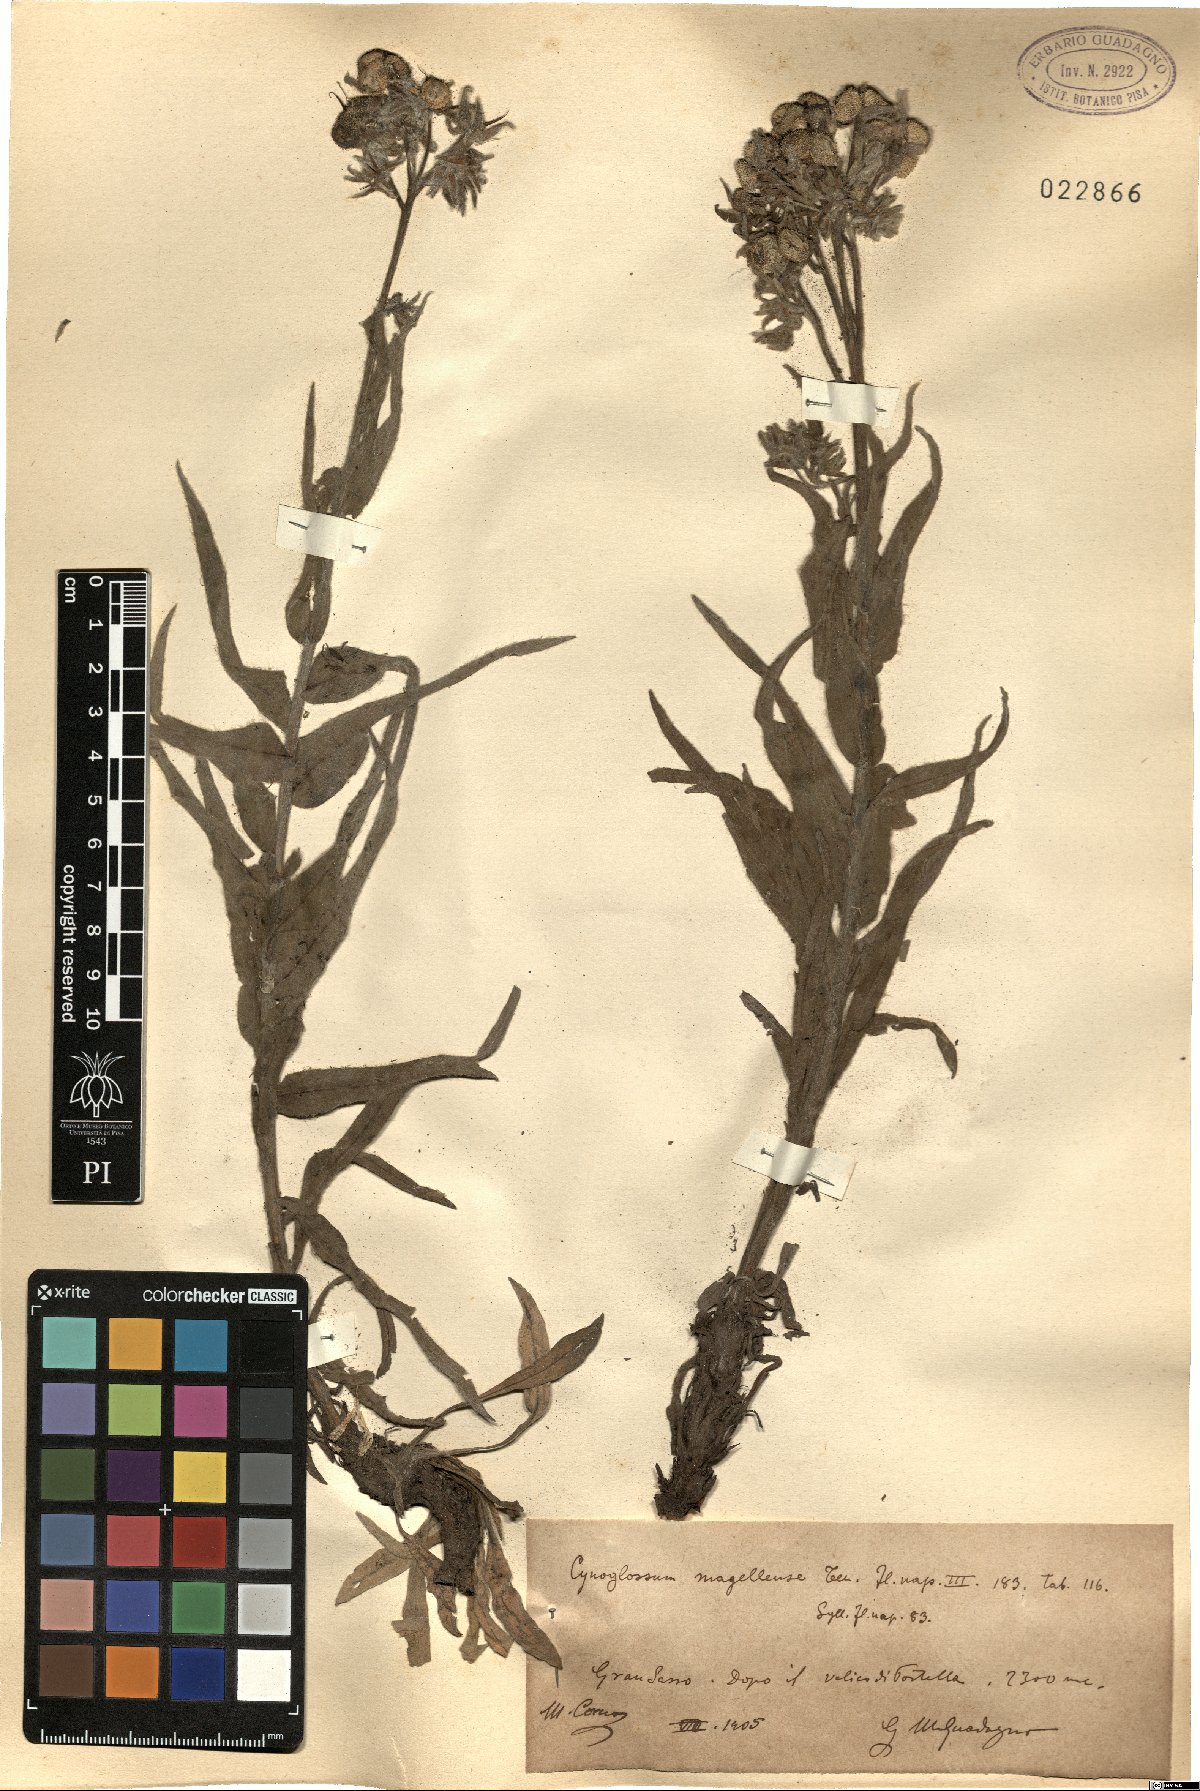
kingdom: Plantae
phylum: Tracheophyta
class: Magnoliopsida
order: Boraginales
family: Boraginaceae
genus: Rindera
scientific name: Rindera magellensis
